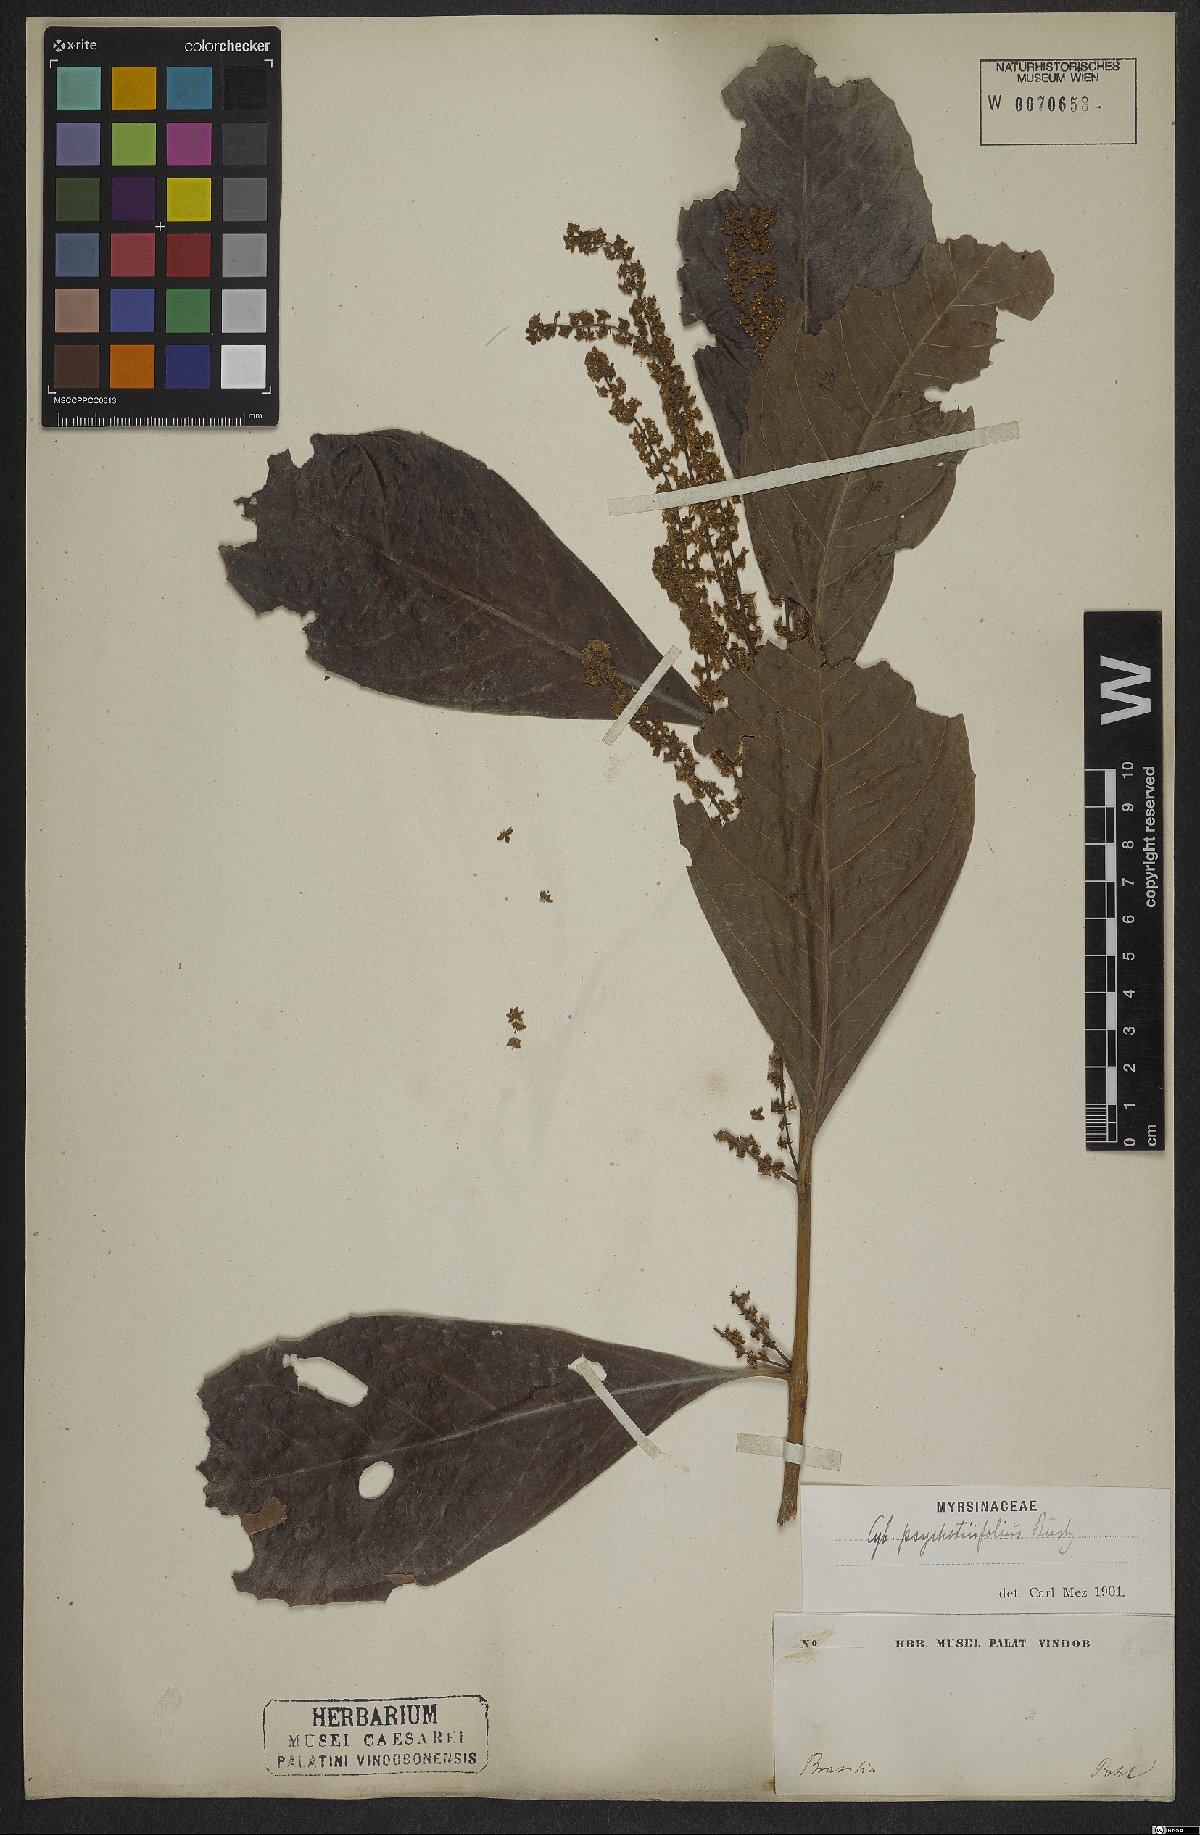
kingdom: Plantae
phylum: Tracheophyta
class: Magnoliopsida
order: Ericales
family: Primulaceae
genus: Cybianthus
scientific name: Cybianthus psychotriifolius
